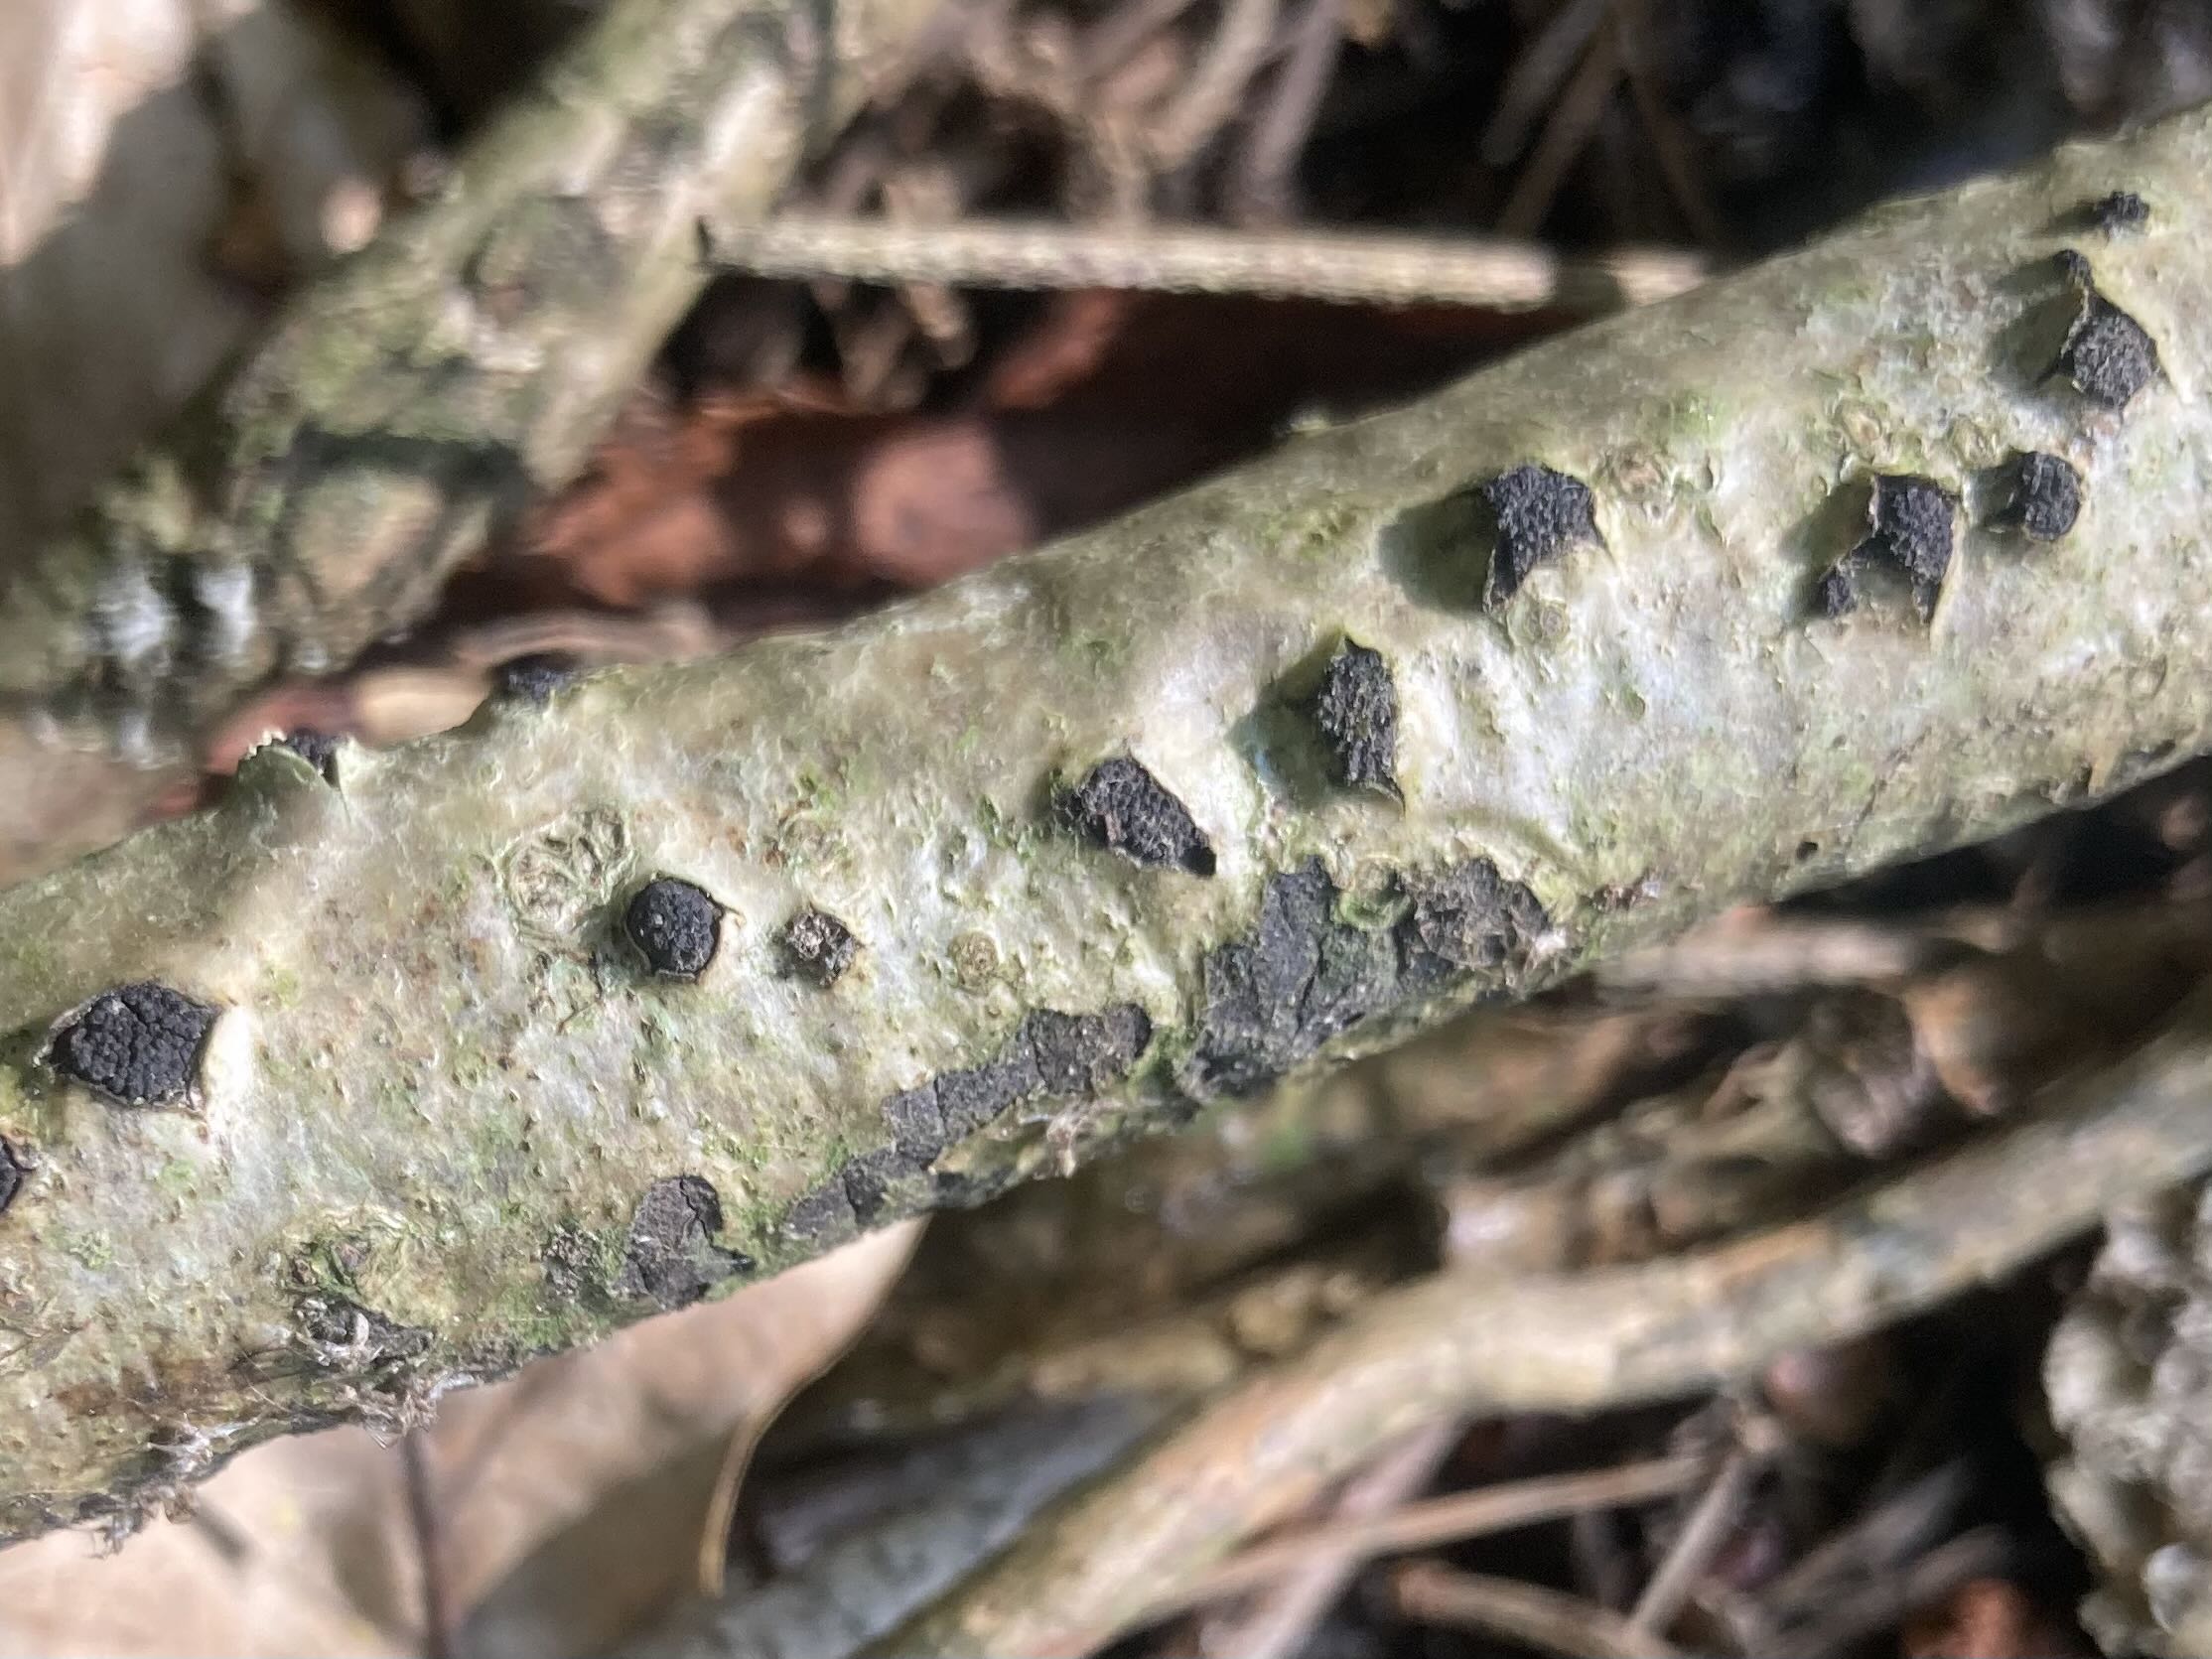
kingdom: Fungi
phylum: Ascomycota
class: Sordariomycetes
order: Xylariales
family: Diatrypaceae
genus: Diatrypella
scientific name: Diatrypella quercina
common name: ege-kulskorpe
